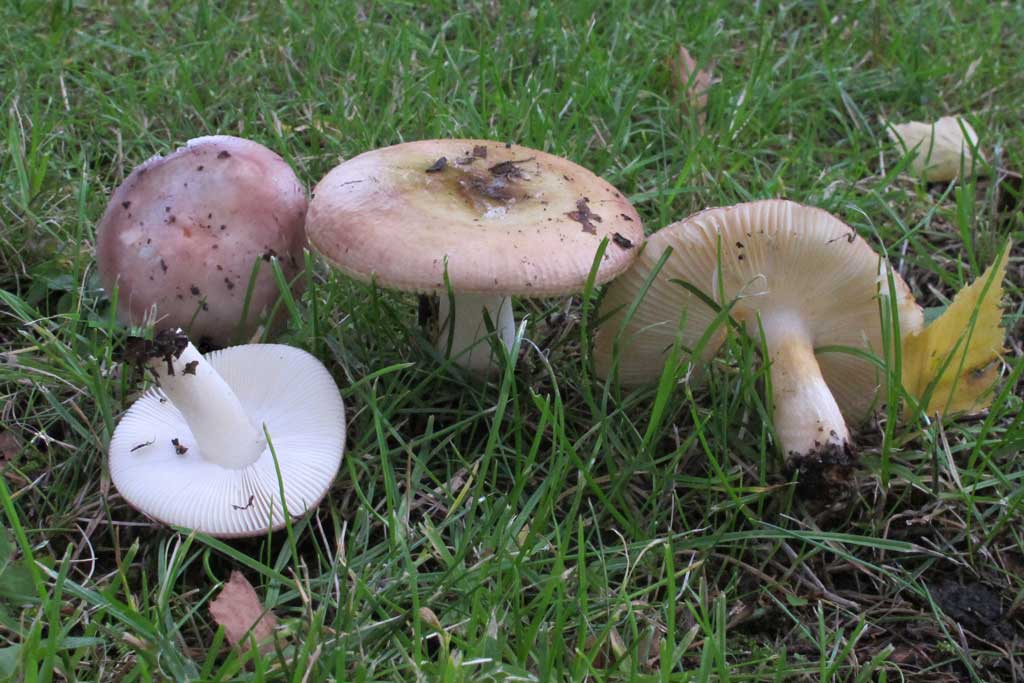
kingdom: Fungi
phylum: Basidiomycota
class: Agaricomycetes
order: Russulales
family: Russulaceae
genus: Russula
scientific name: Russula versicolor
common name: foranderlig skørhat
